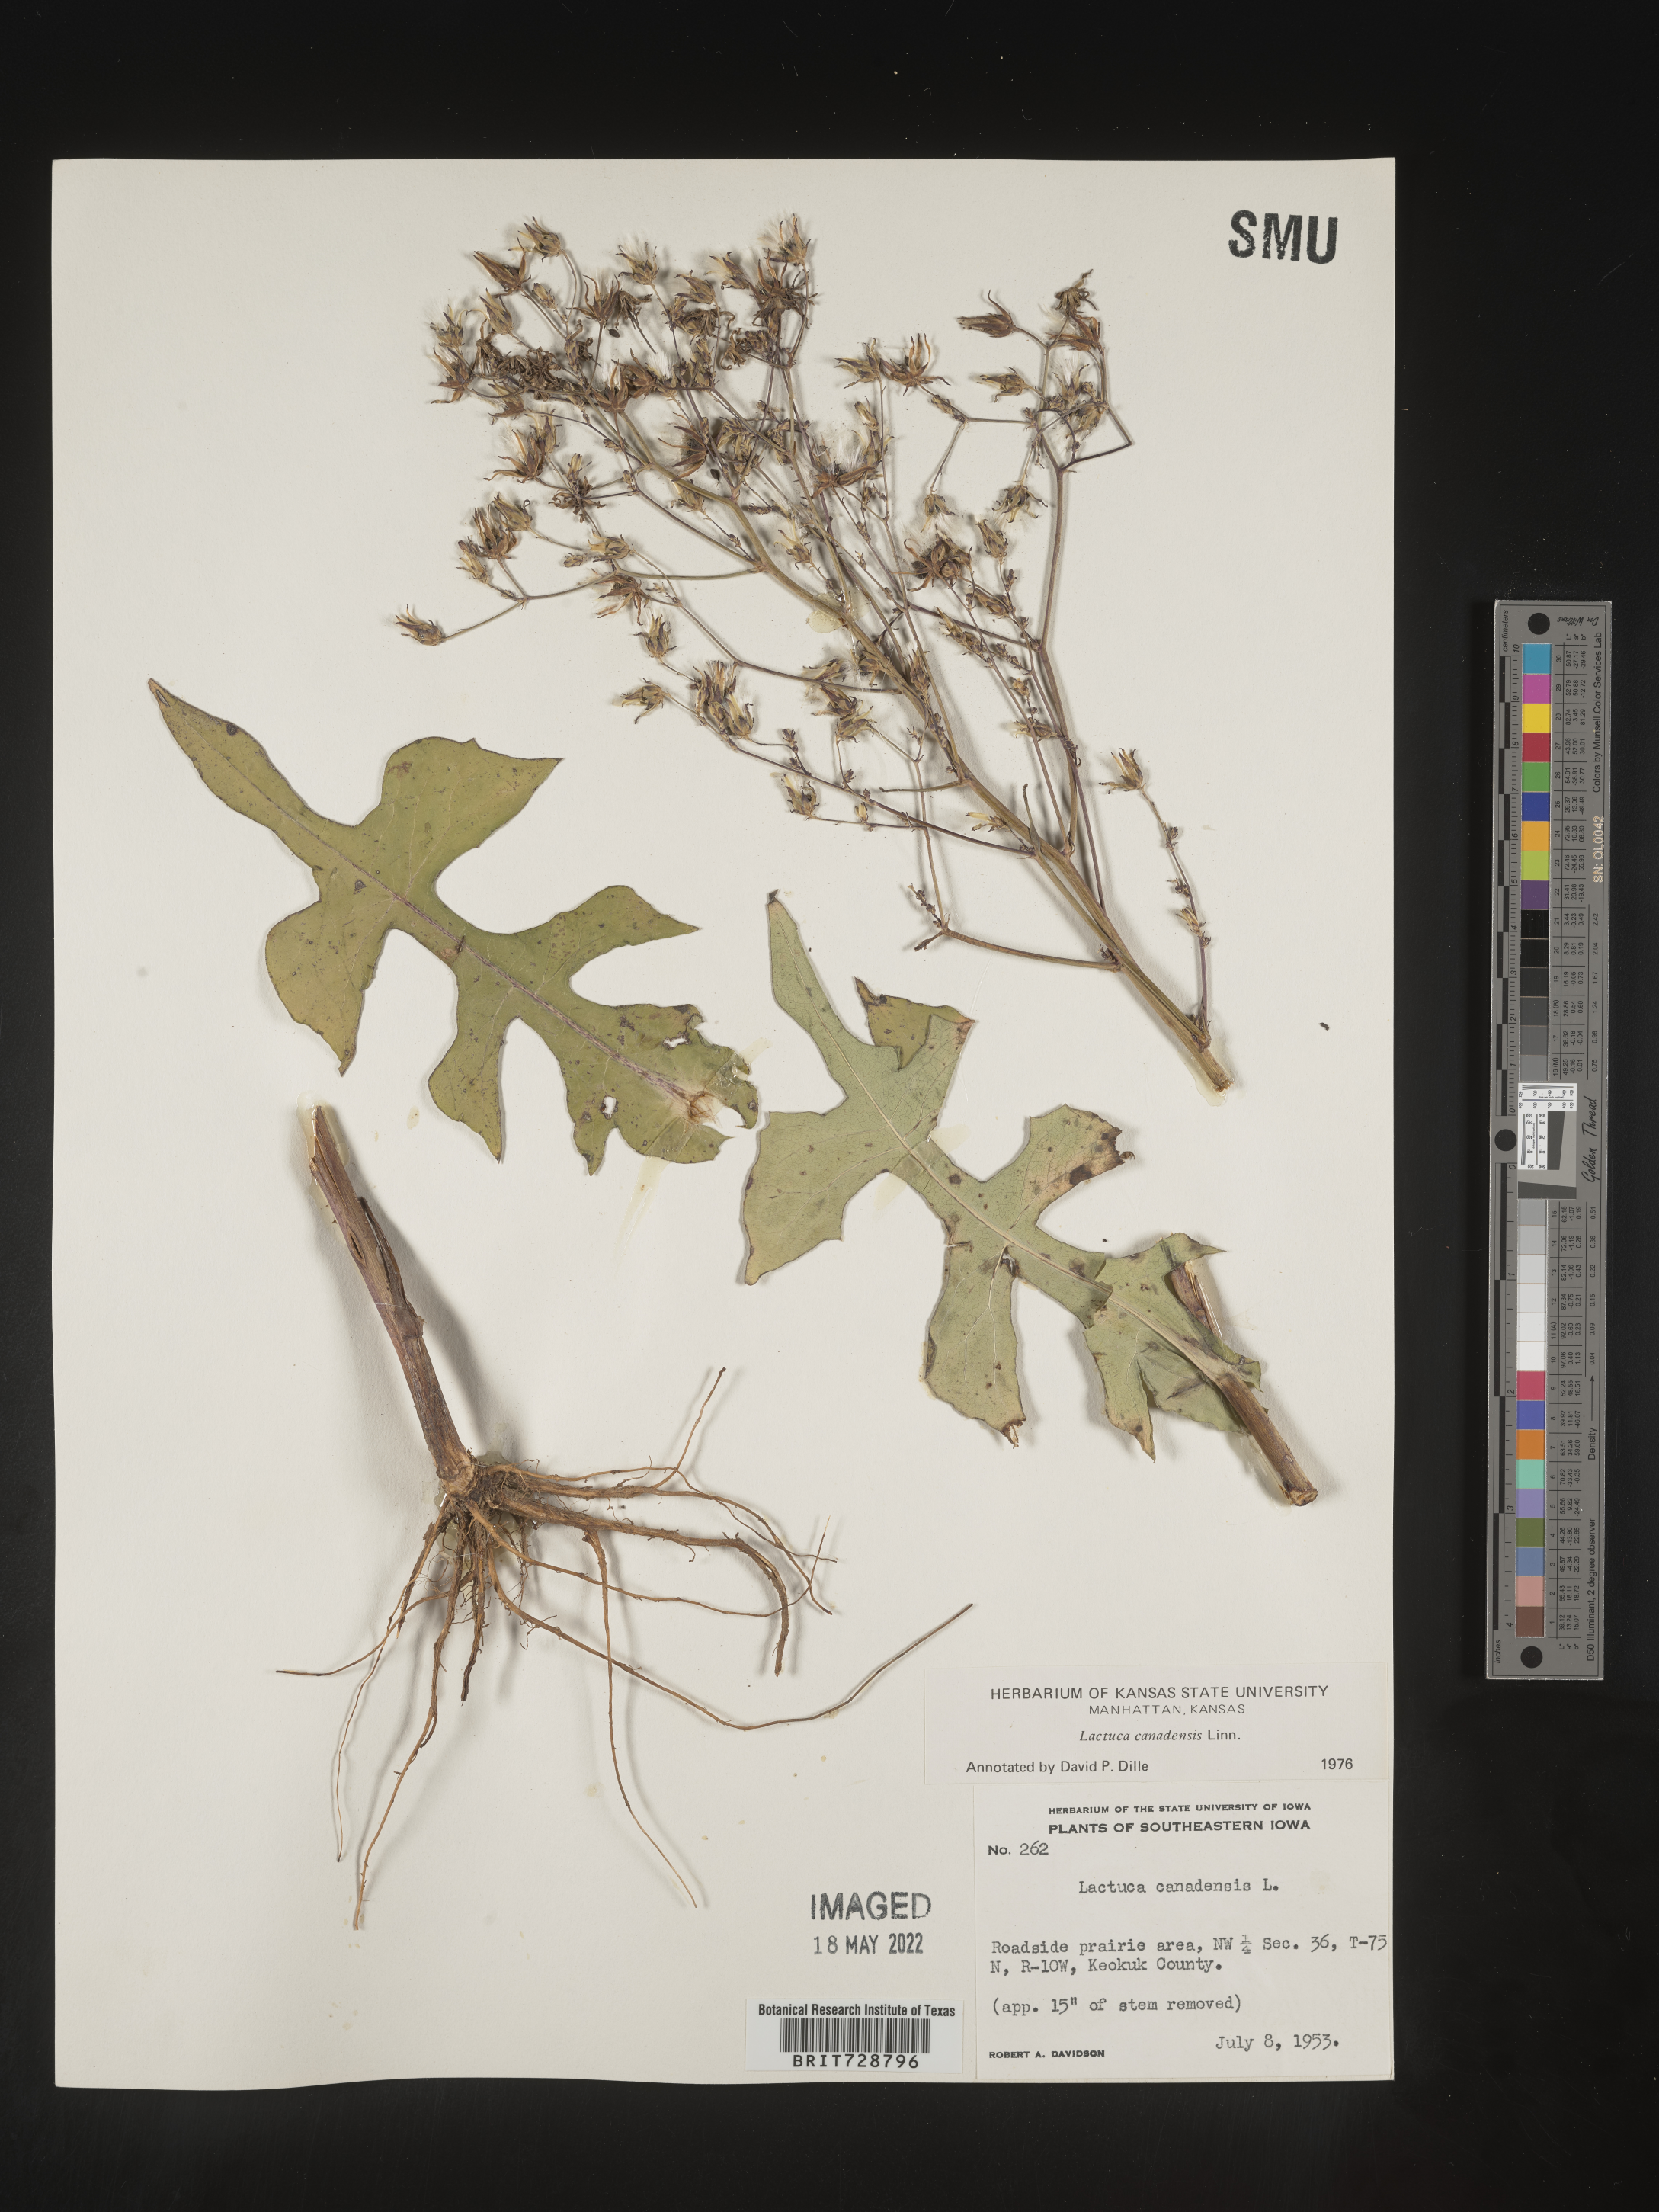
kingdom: Plantae
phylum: Tracheophyta
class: Magnoliopsida
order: Asterales
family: Asteraceae
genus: Lactuca
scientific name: Lactuca canadensis
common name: Canada lettuce
